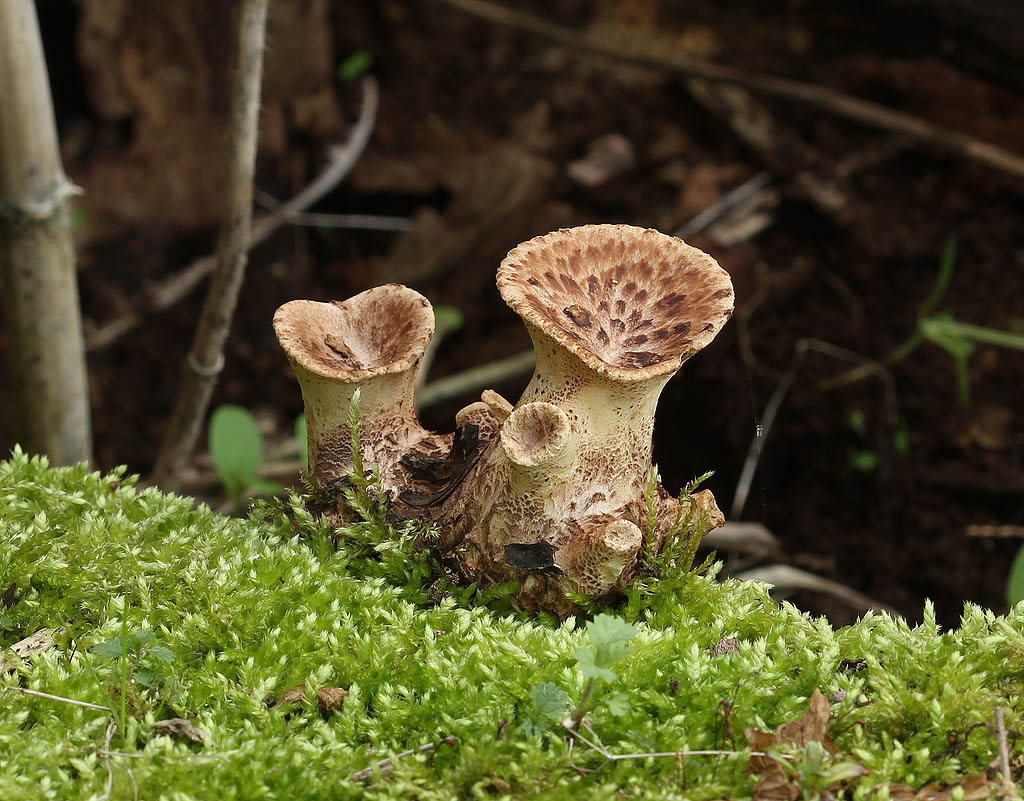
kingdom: Fungi
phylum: Basidiomycota
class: Agaricomycetes
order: Polyporales
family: Polyporaceae
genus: Cerioporus
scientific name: Cerioporus squamosus
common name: skællet stilkporesvamp
